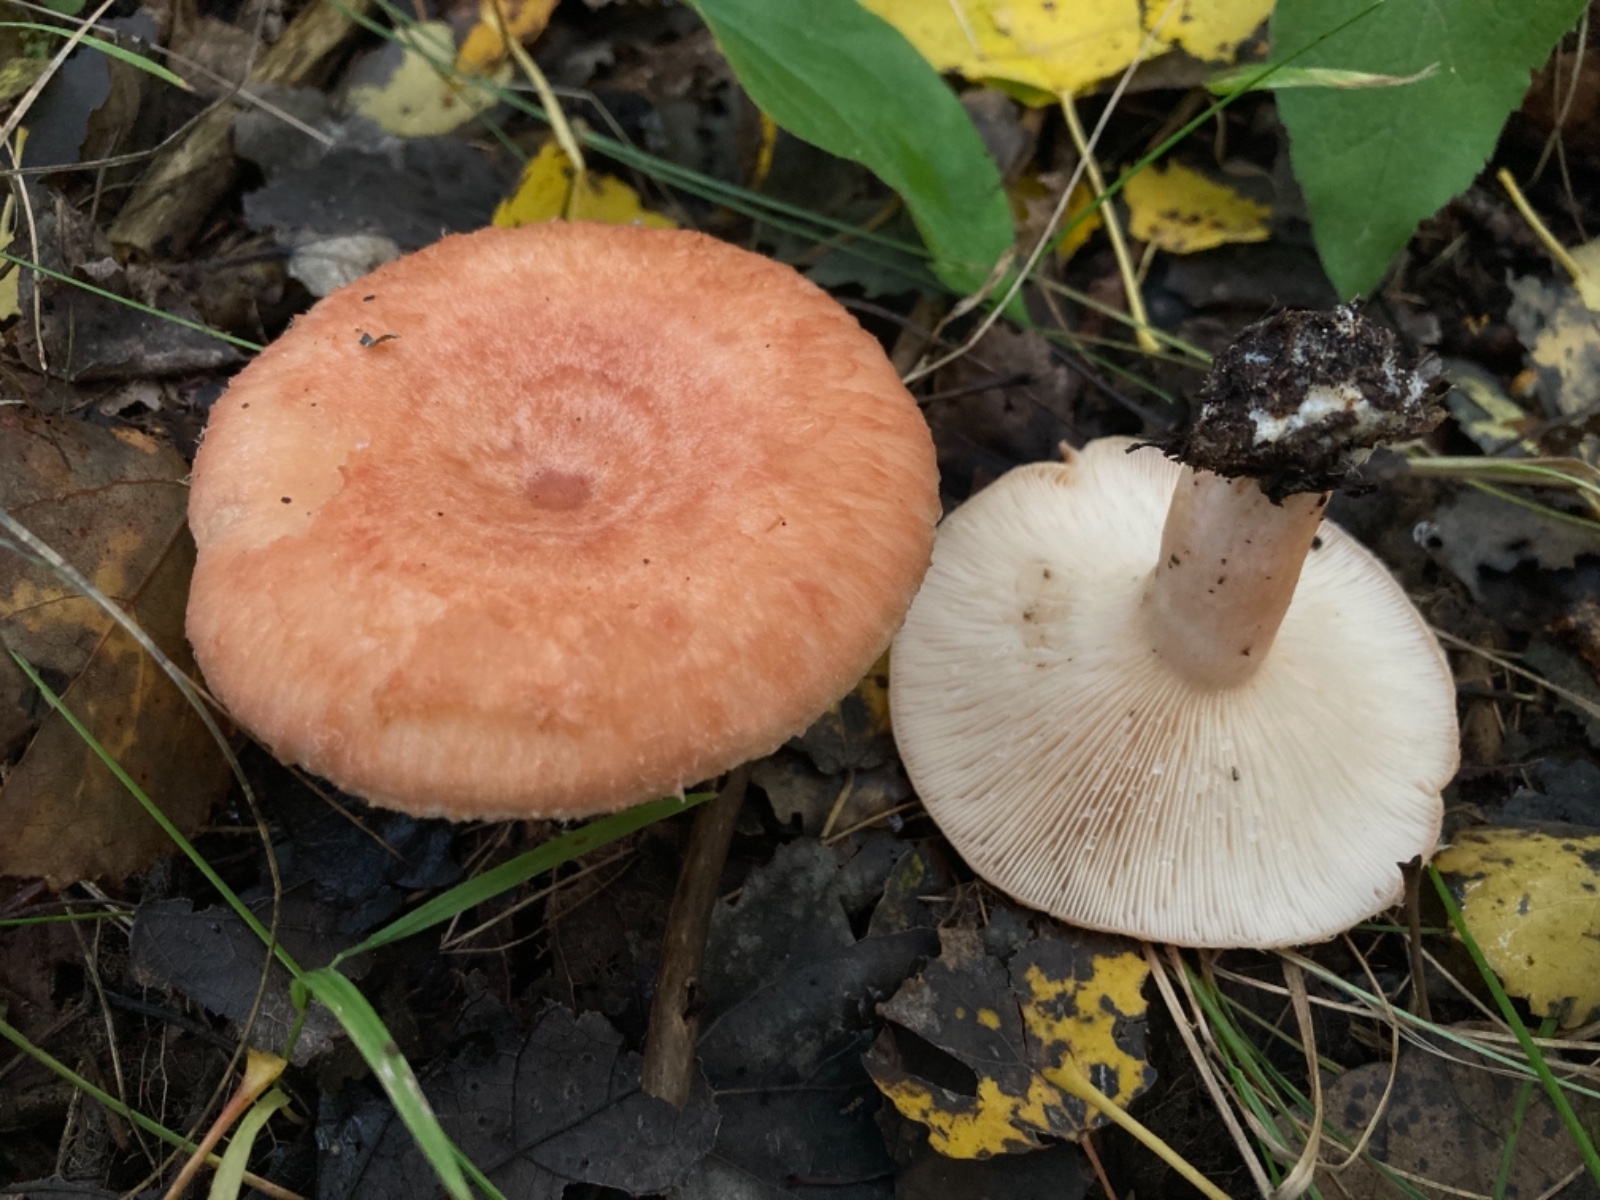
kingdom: Fungi
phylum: Basidiomycota
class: Agaricomycetes
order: Russulales
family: Russulaceae
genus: Lactarius
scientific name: Lactarius torminosus
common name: skægget mælkehat
